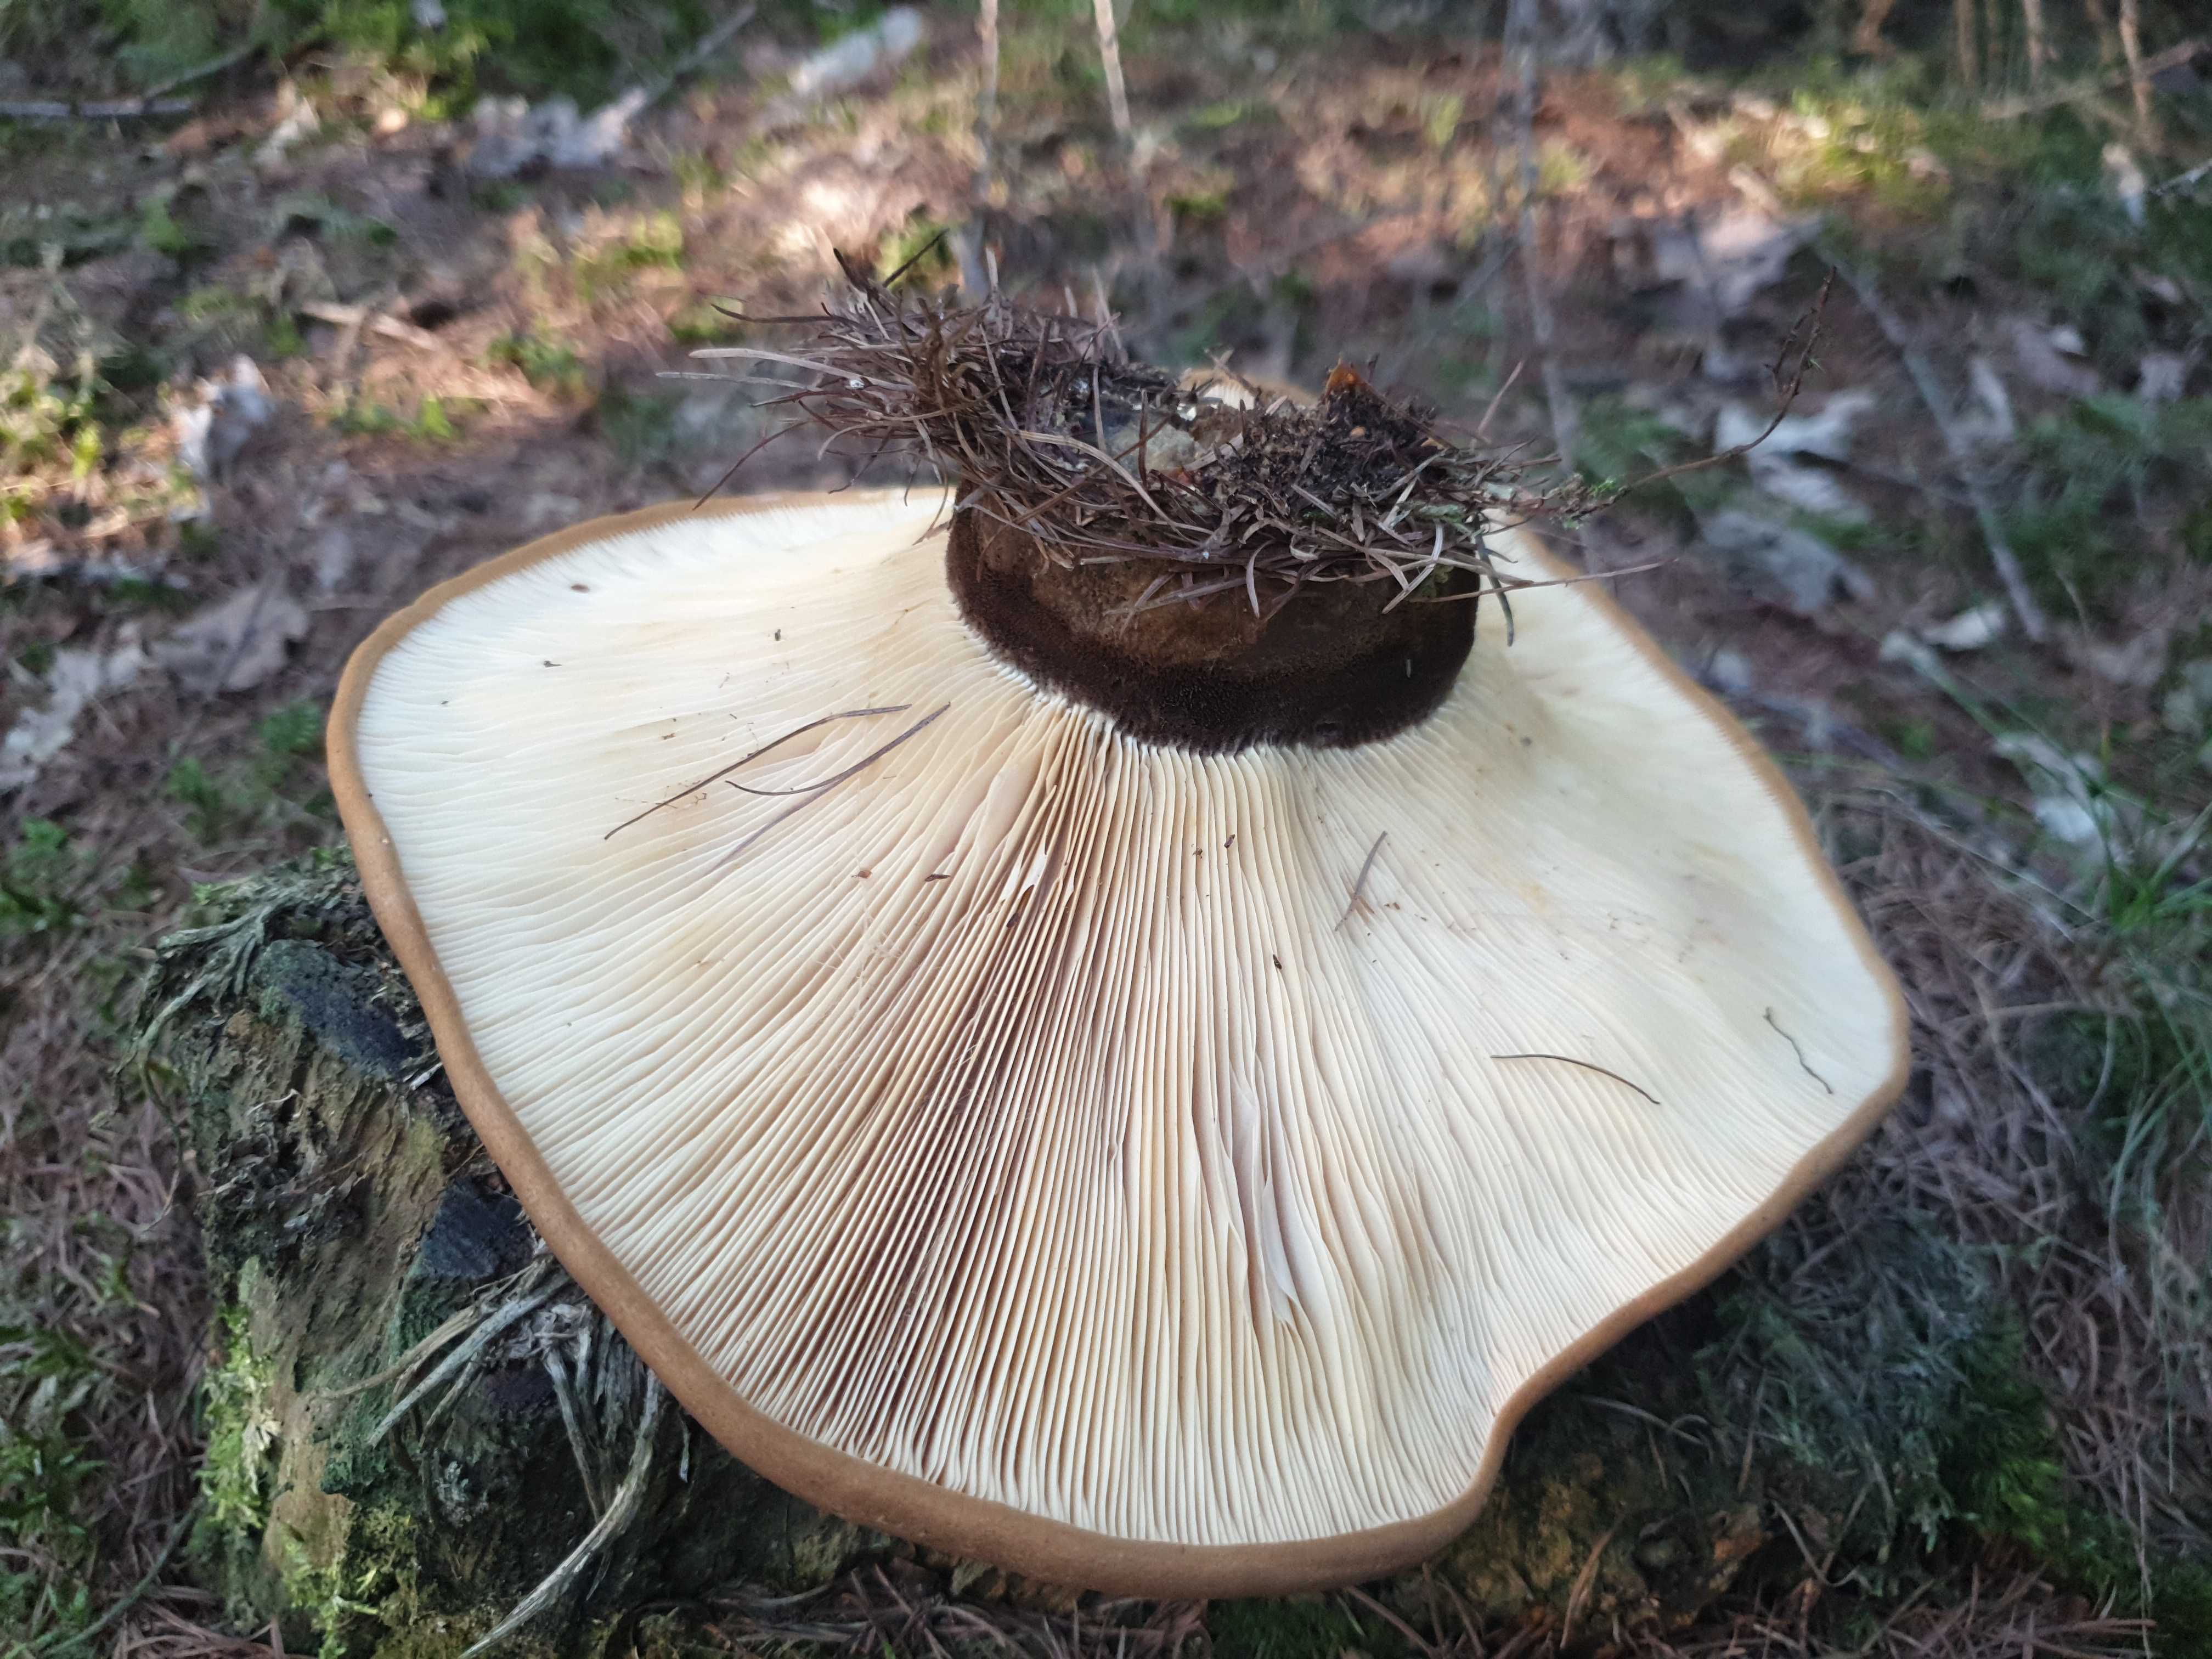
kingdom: Fungi
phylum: Basidiomycota
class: Agaricomycetes
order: Boletales
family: Tapinellaceae
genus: Tapinella
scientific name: Tapinella atrotomentosa
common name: sortfiltet viftesvamp
